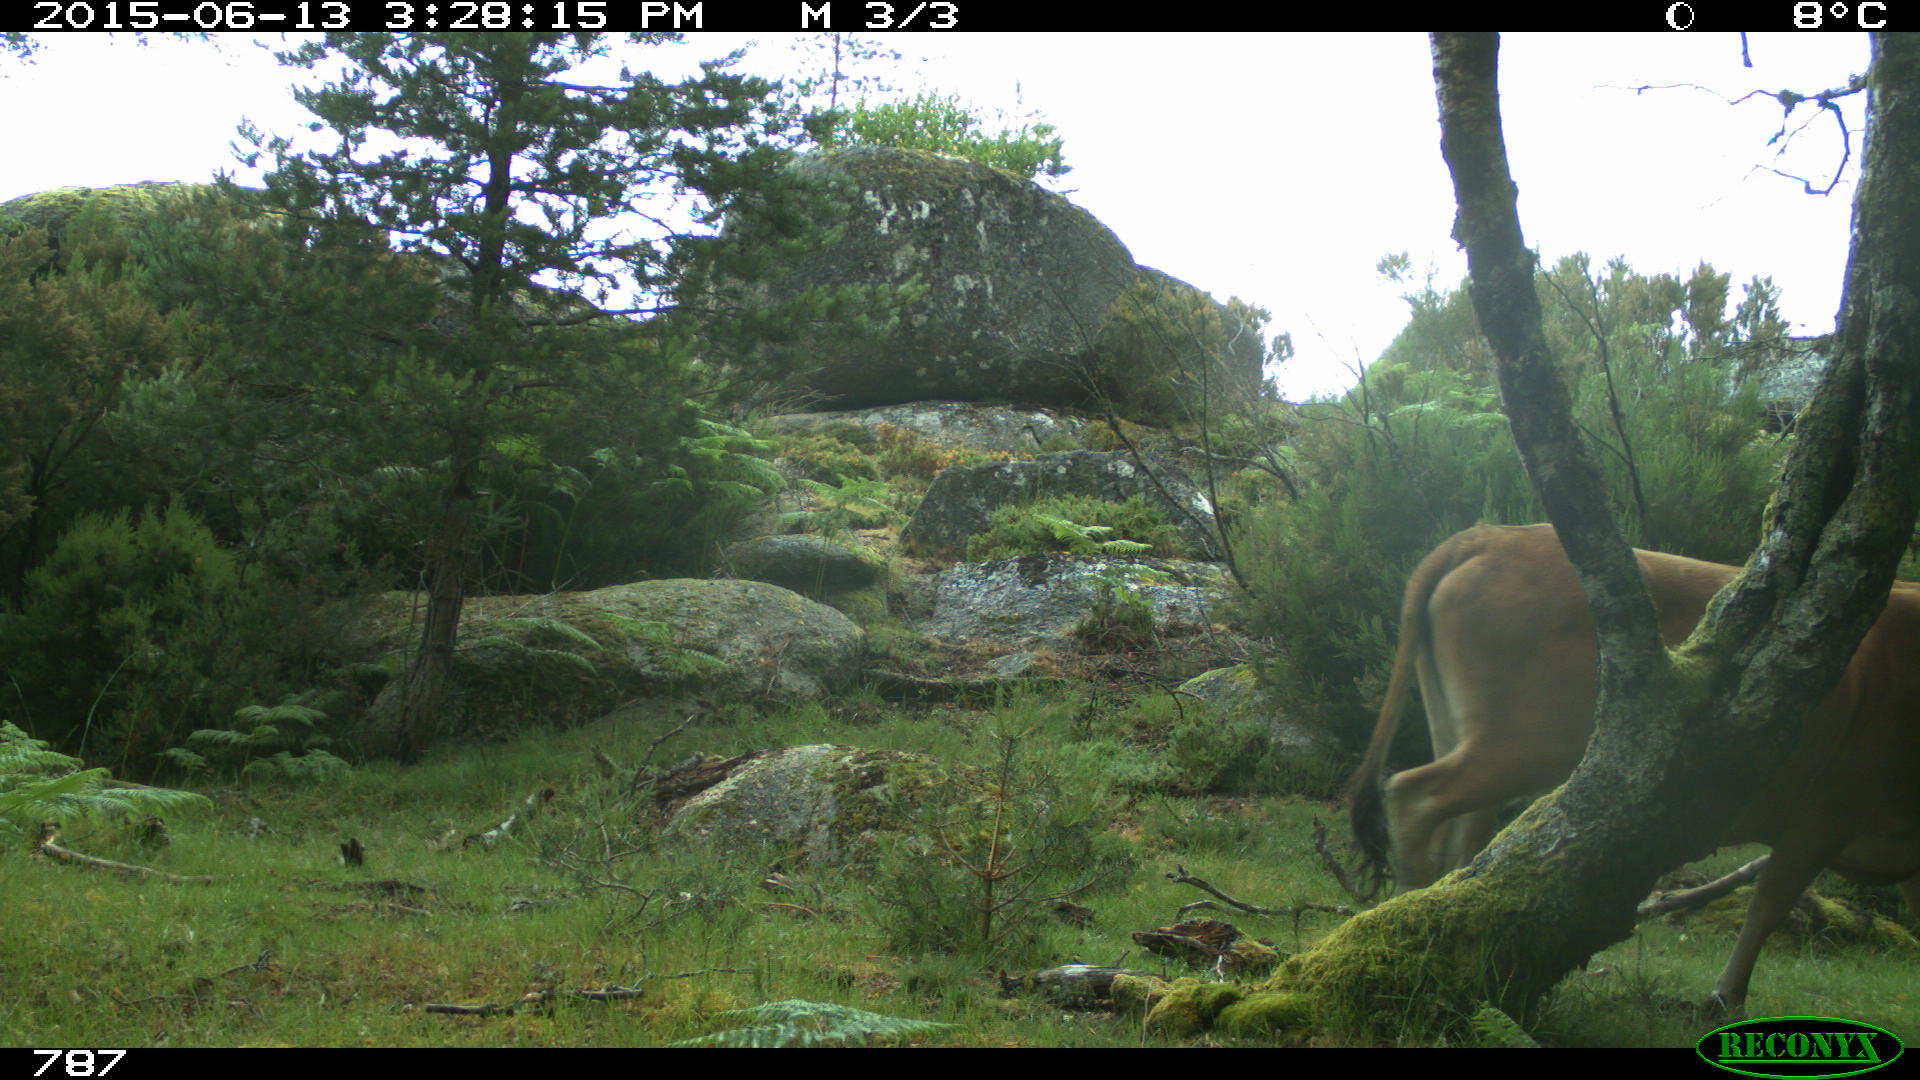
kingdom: Animalia
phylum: Chordata
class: Mammalia
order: Artiodactyla
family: Bovidae
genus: Bos
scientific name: Bos taurus
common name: Domesticated cattle
